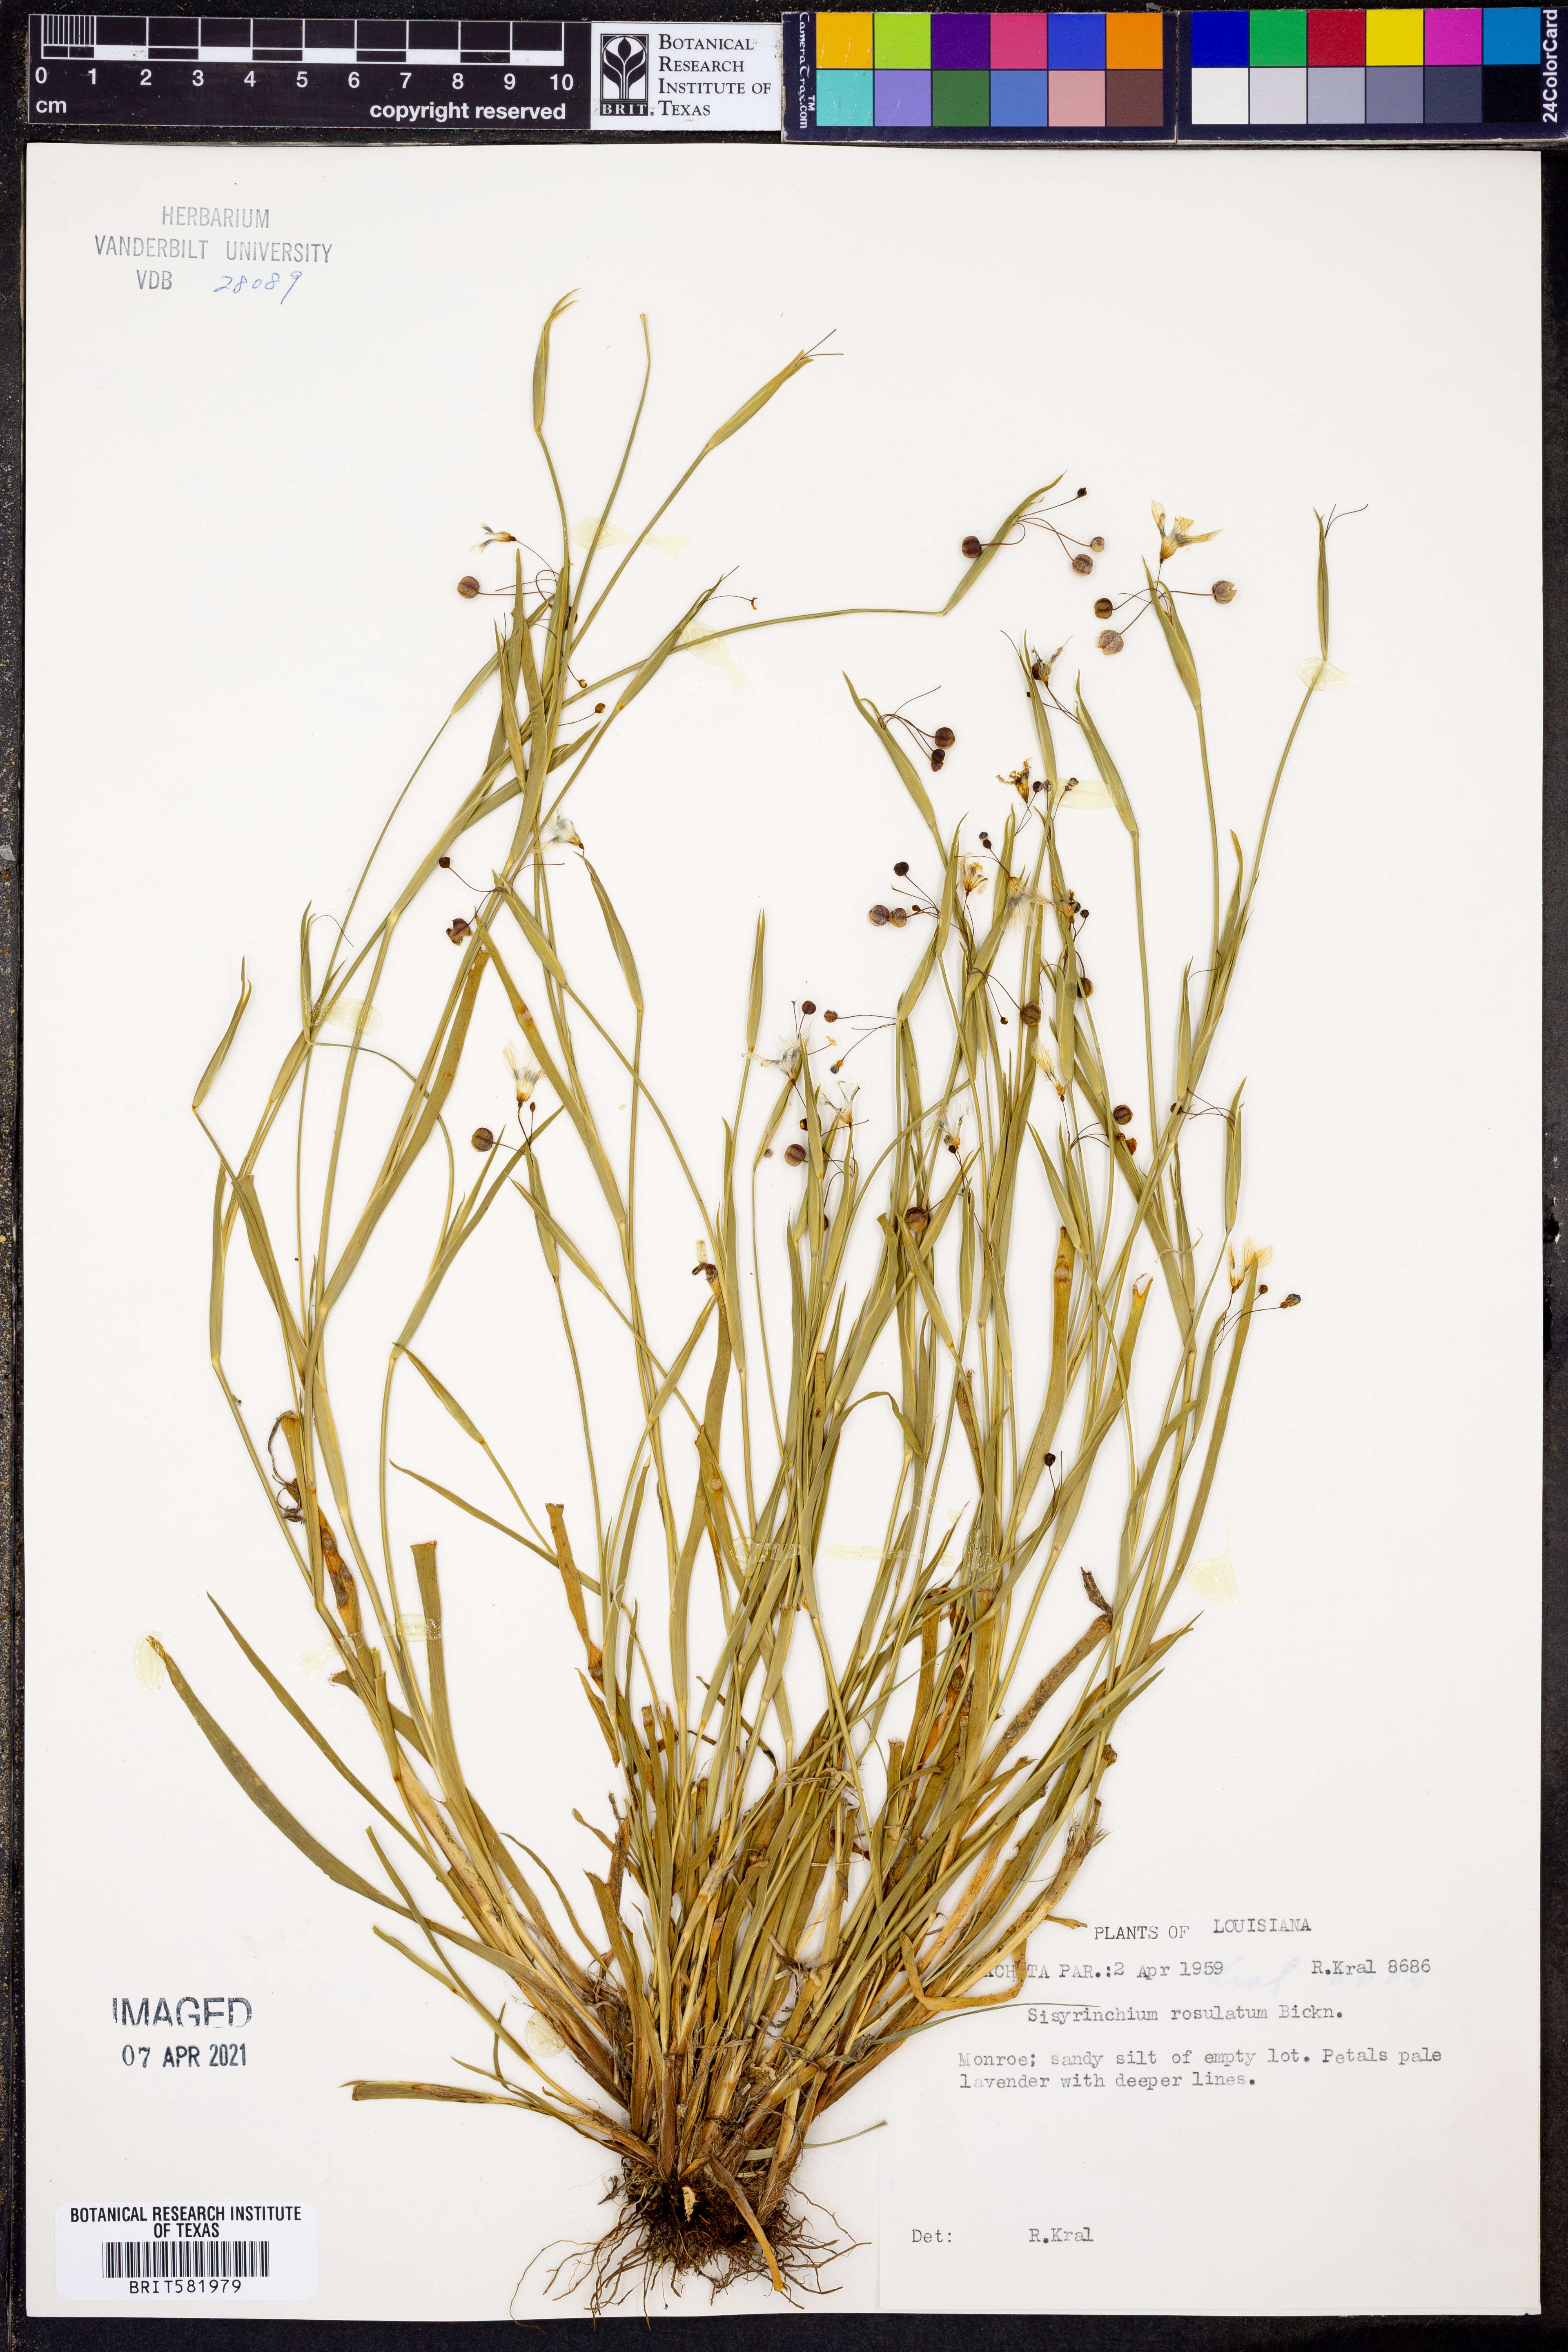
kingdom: Plantae
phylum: Tracheophyta
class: Liliopsida
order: Asparagales
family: Iridaceae
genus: Sisyrinchium
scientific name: Sisyrinchium rosulatum
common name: Annual blue-eyed grass
